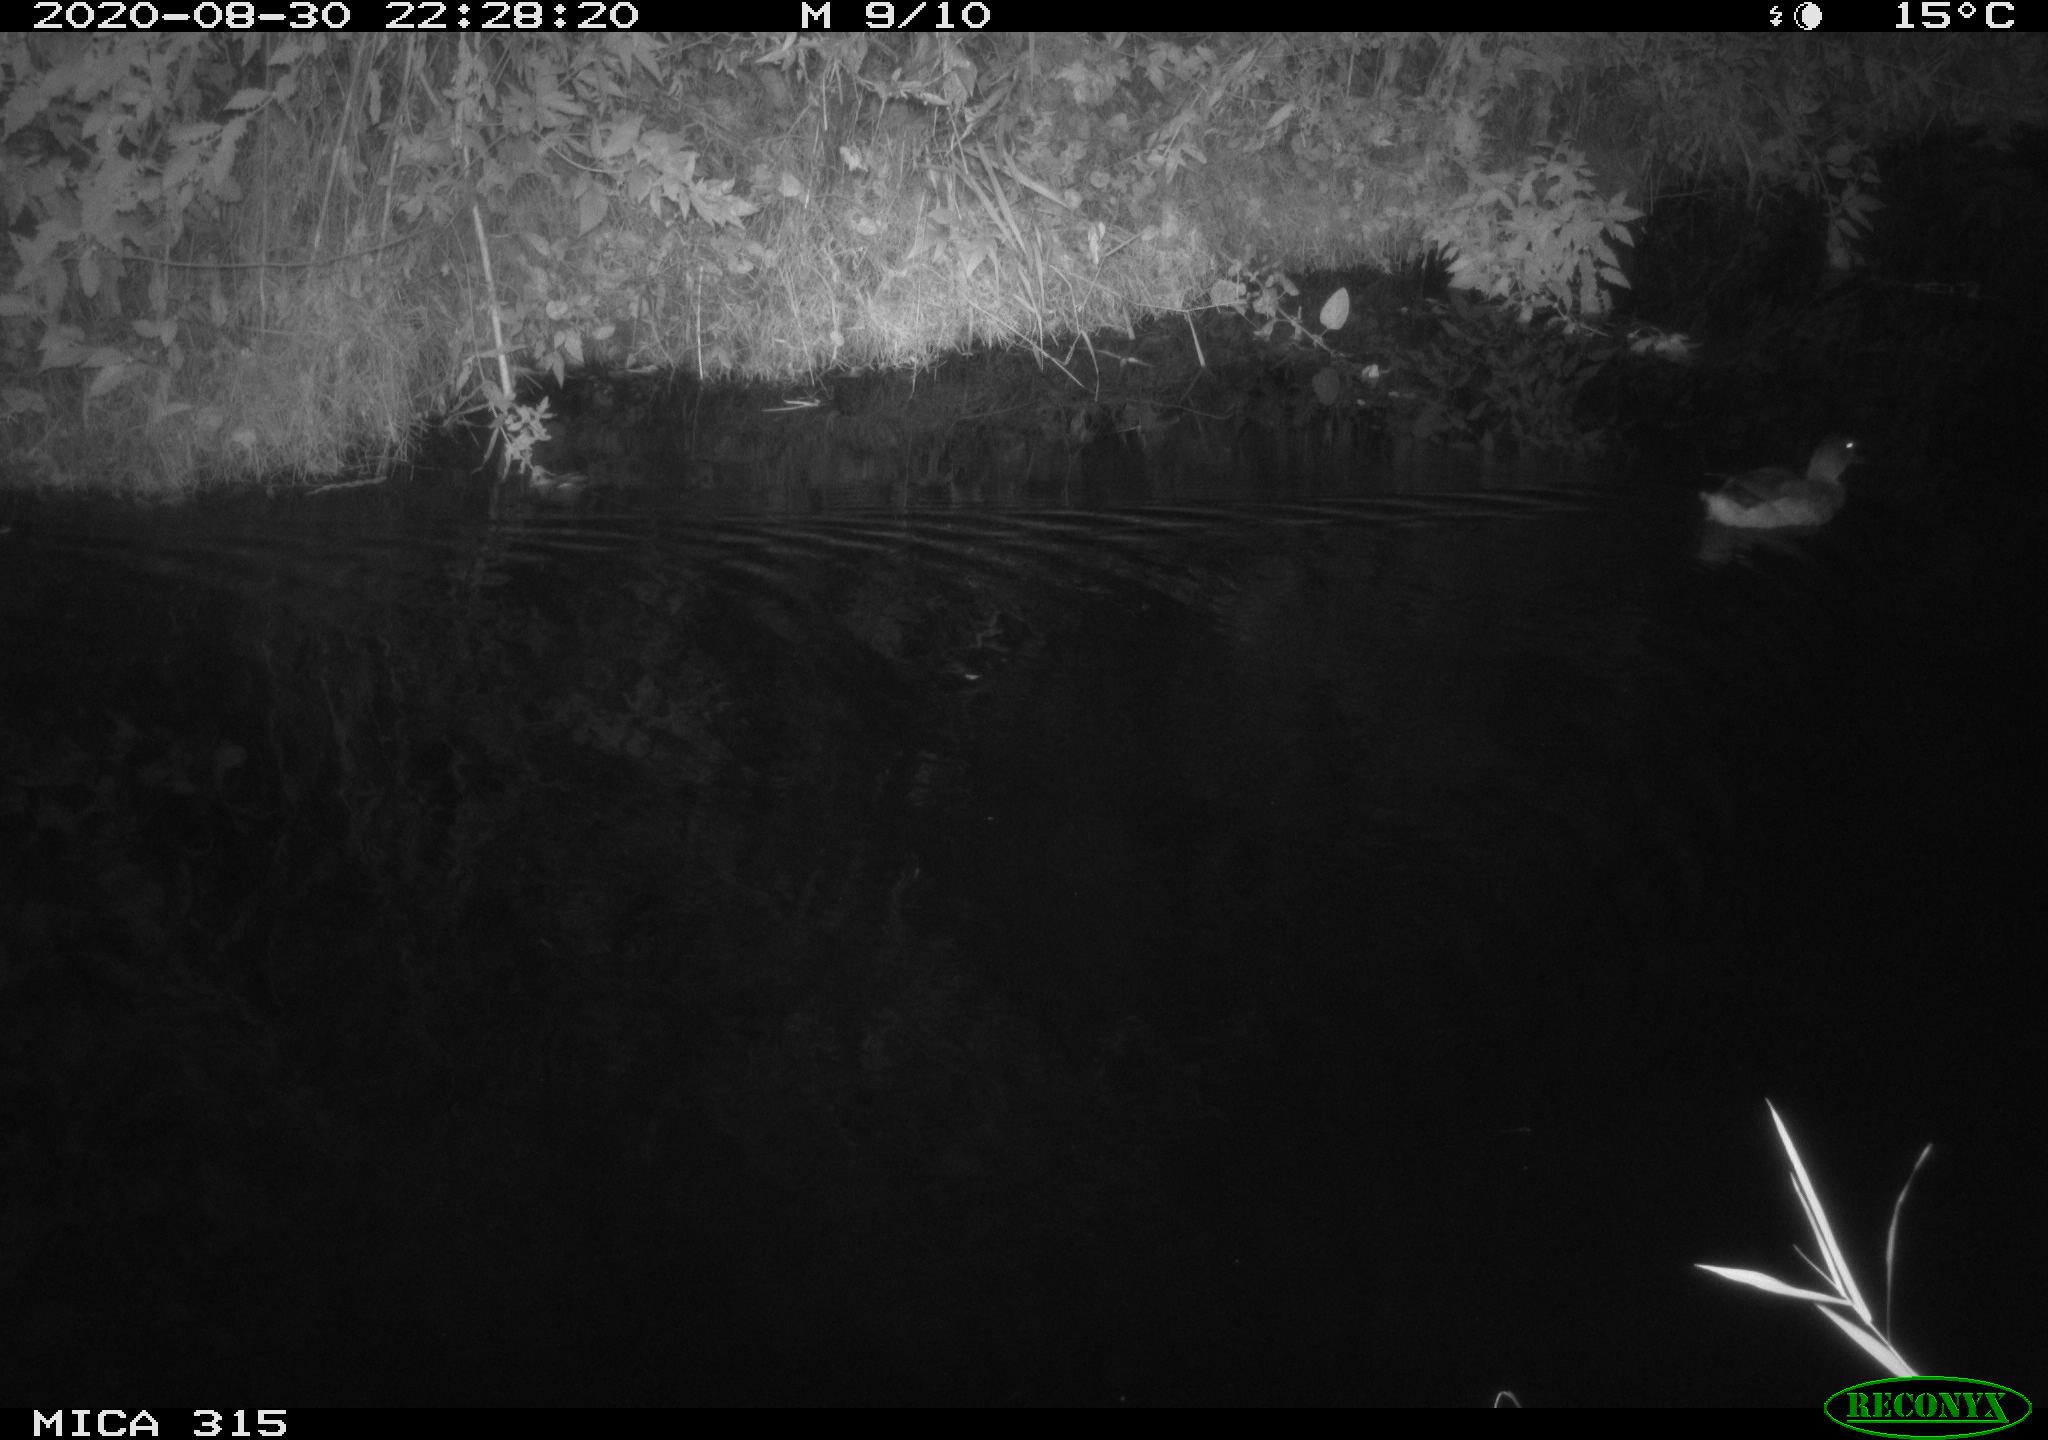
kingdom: Animalia
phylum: Chordata
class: Aves
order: Anseriformes
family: Anatidae
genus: Anas
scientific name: Anas platyrhynchos
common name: Mallard
